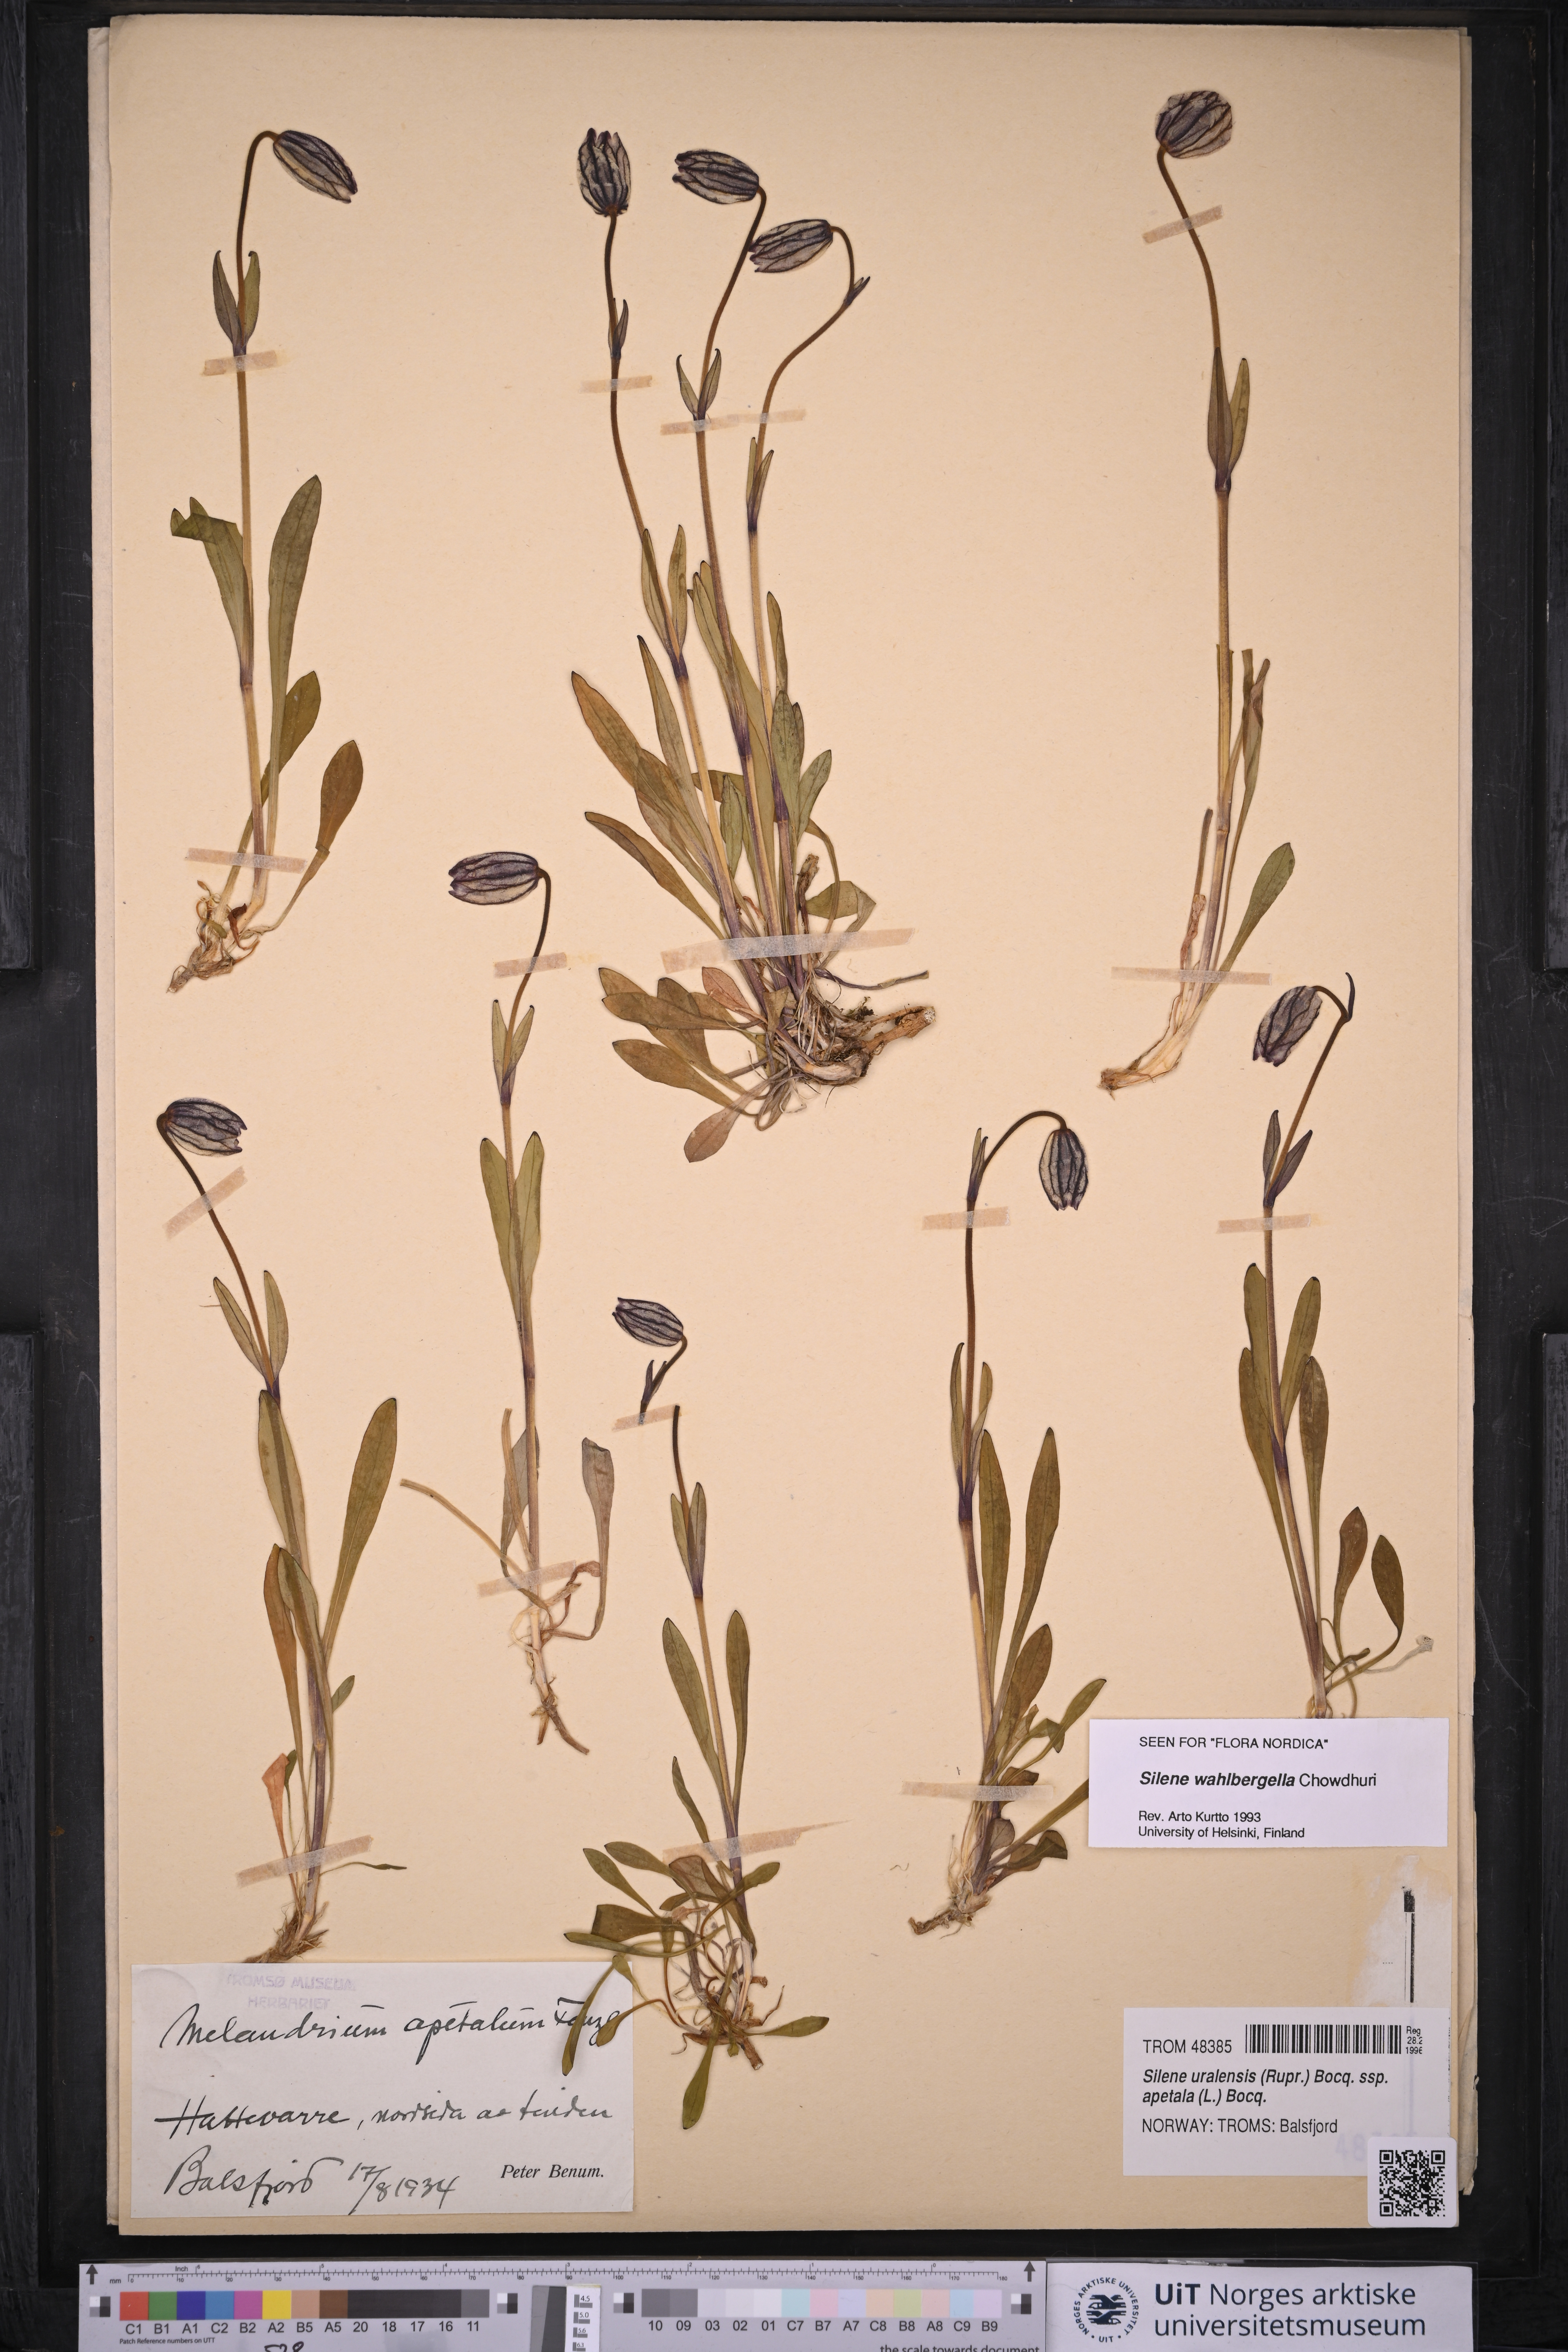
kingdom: Plantae
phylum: Tracheophyta
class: Magnoliopsida
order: Caryophyllales
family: Caryophyllaceae
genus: Silene
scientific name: Silene wahlbergella
